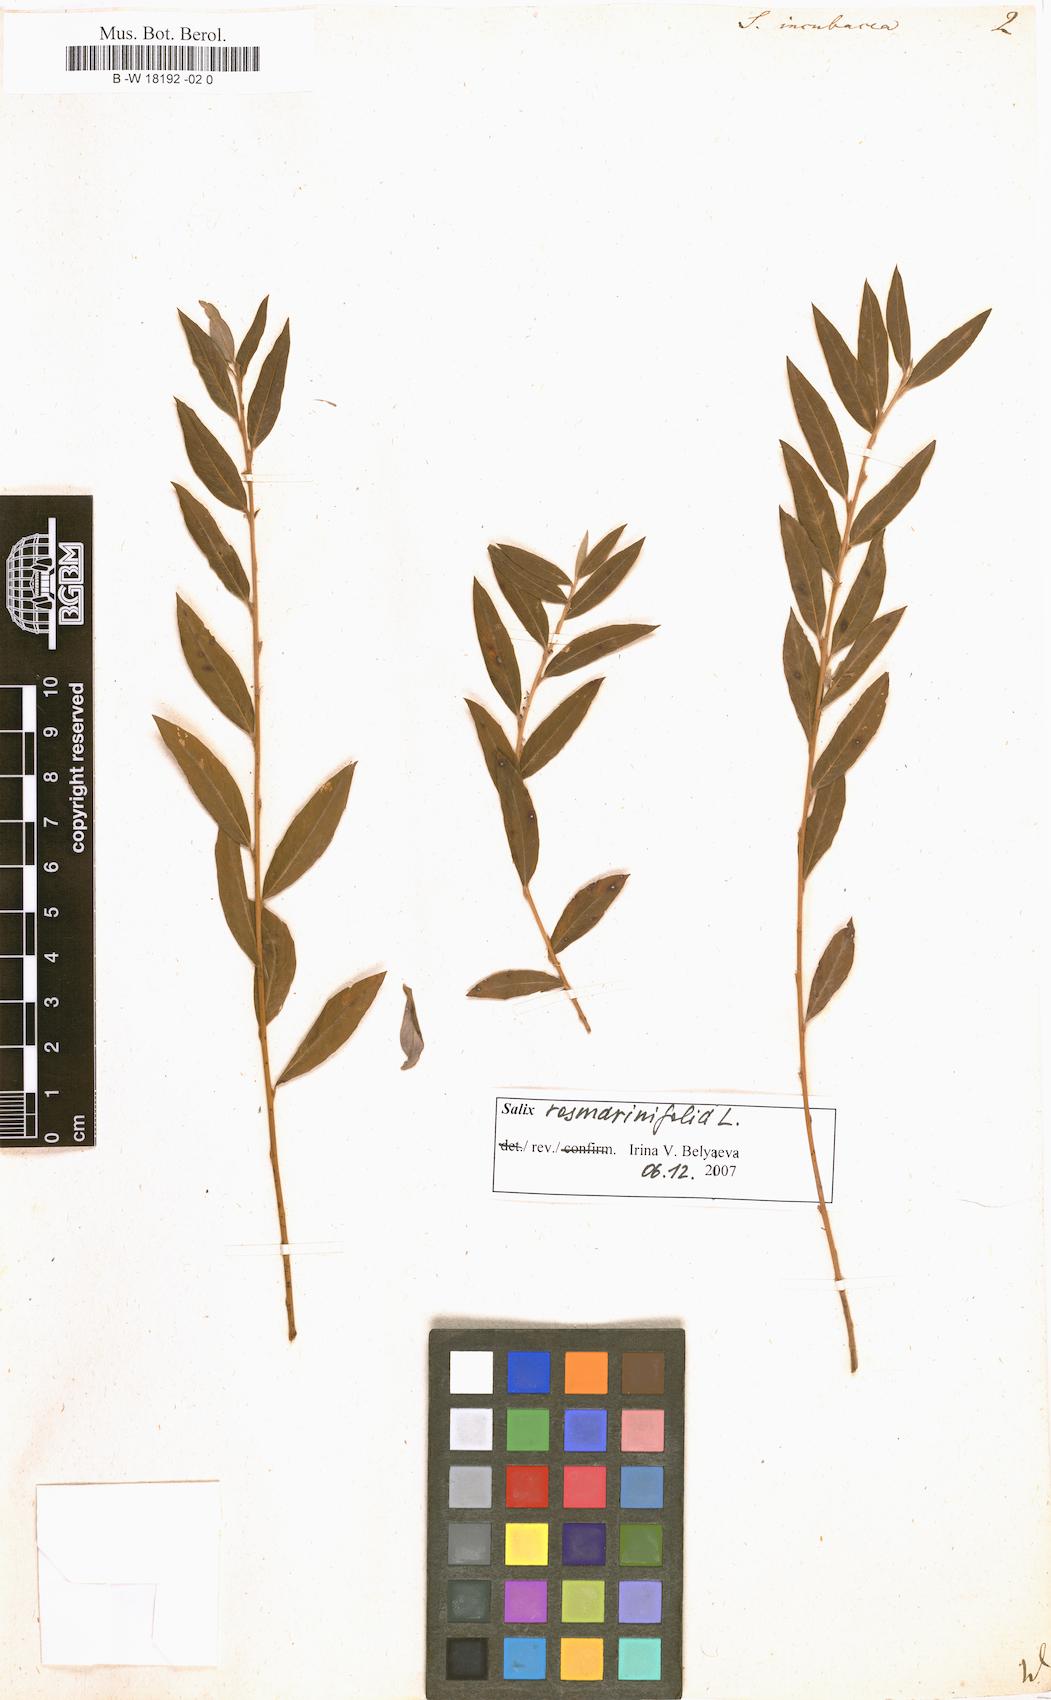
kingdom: Plantae
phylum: Tracheophyta
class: Magnoliopsida
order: Malpighiales
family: Salicaceae
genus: Salix
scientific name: Salix incubacea
